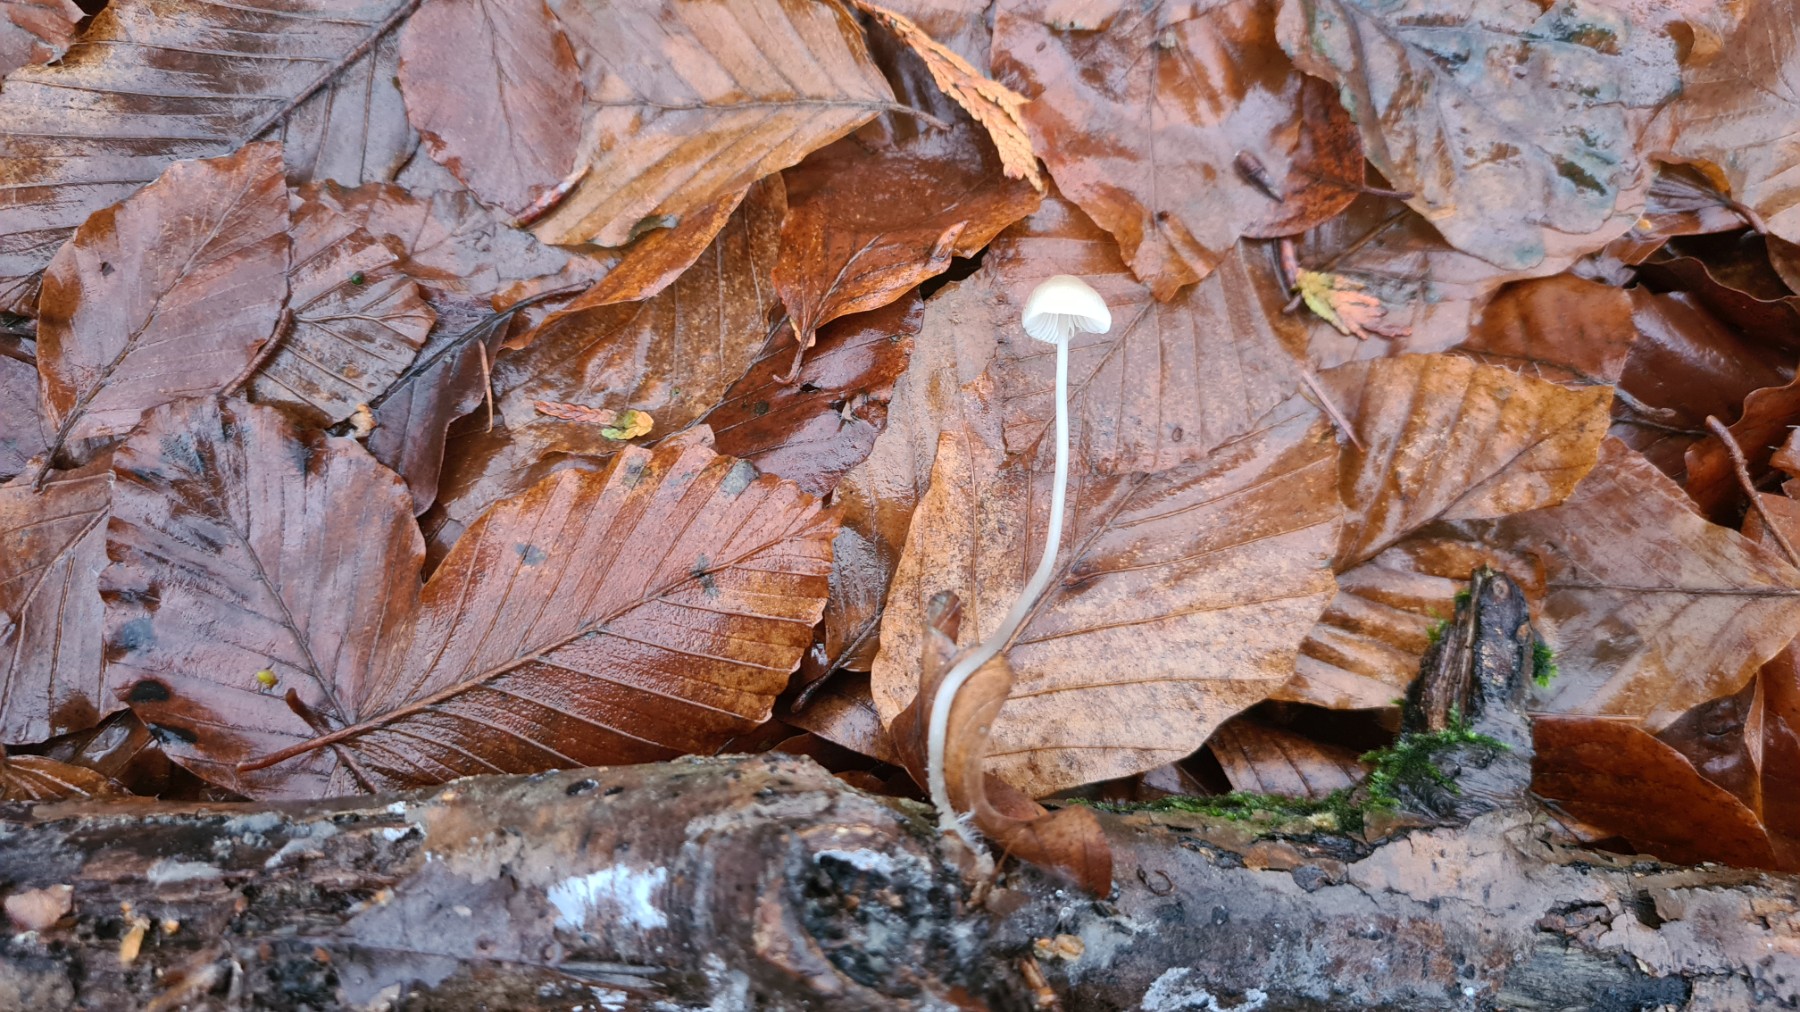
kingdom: Fungi
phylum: Basidiomycota
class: Agaricomycetes
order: Agaricales
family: Mycenaceae
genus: Mycena
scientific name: Mycena vitilis
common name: blankstokket huesvamp
